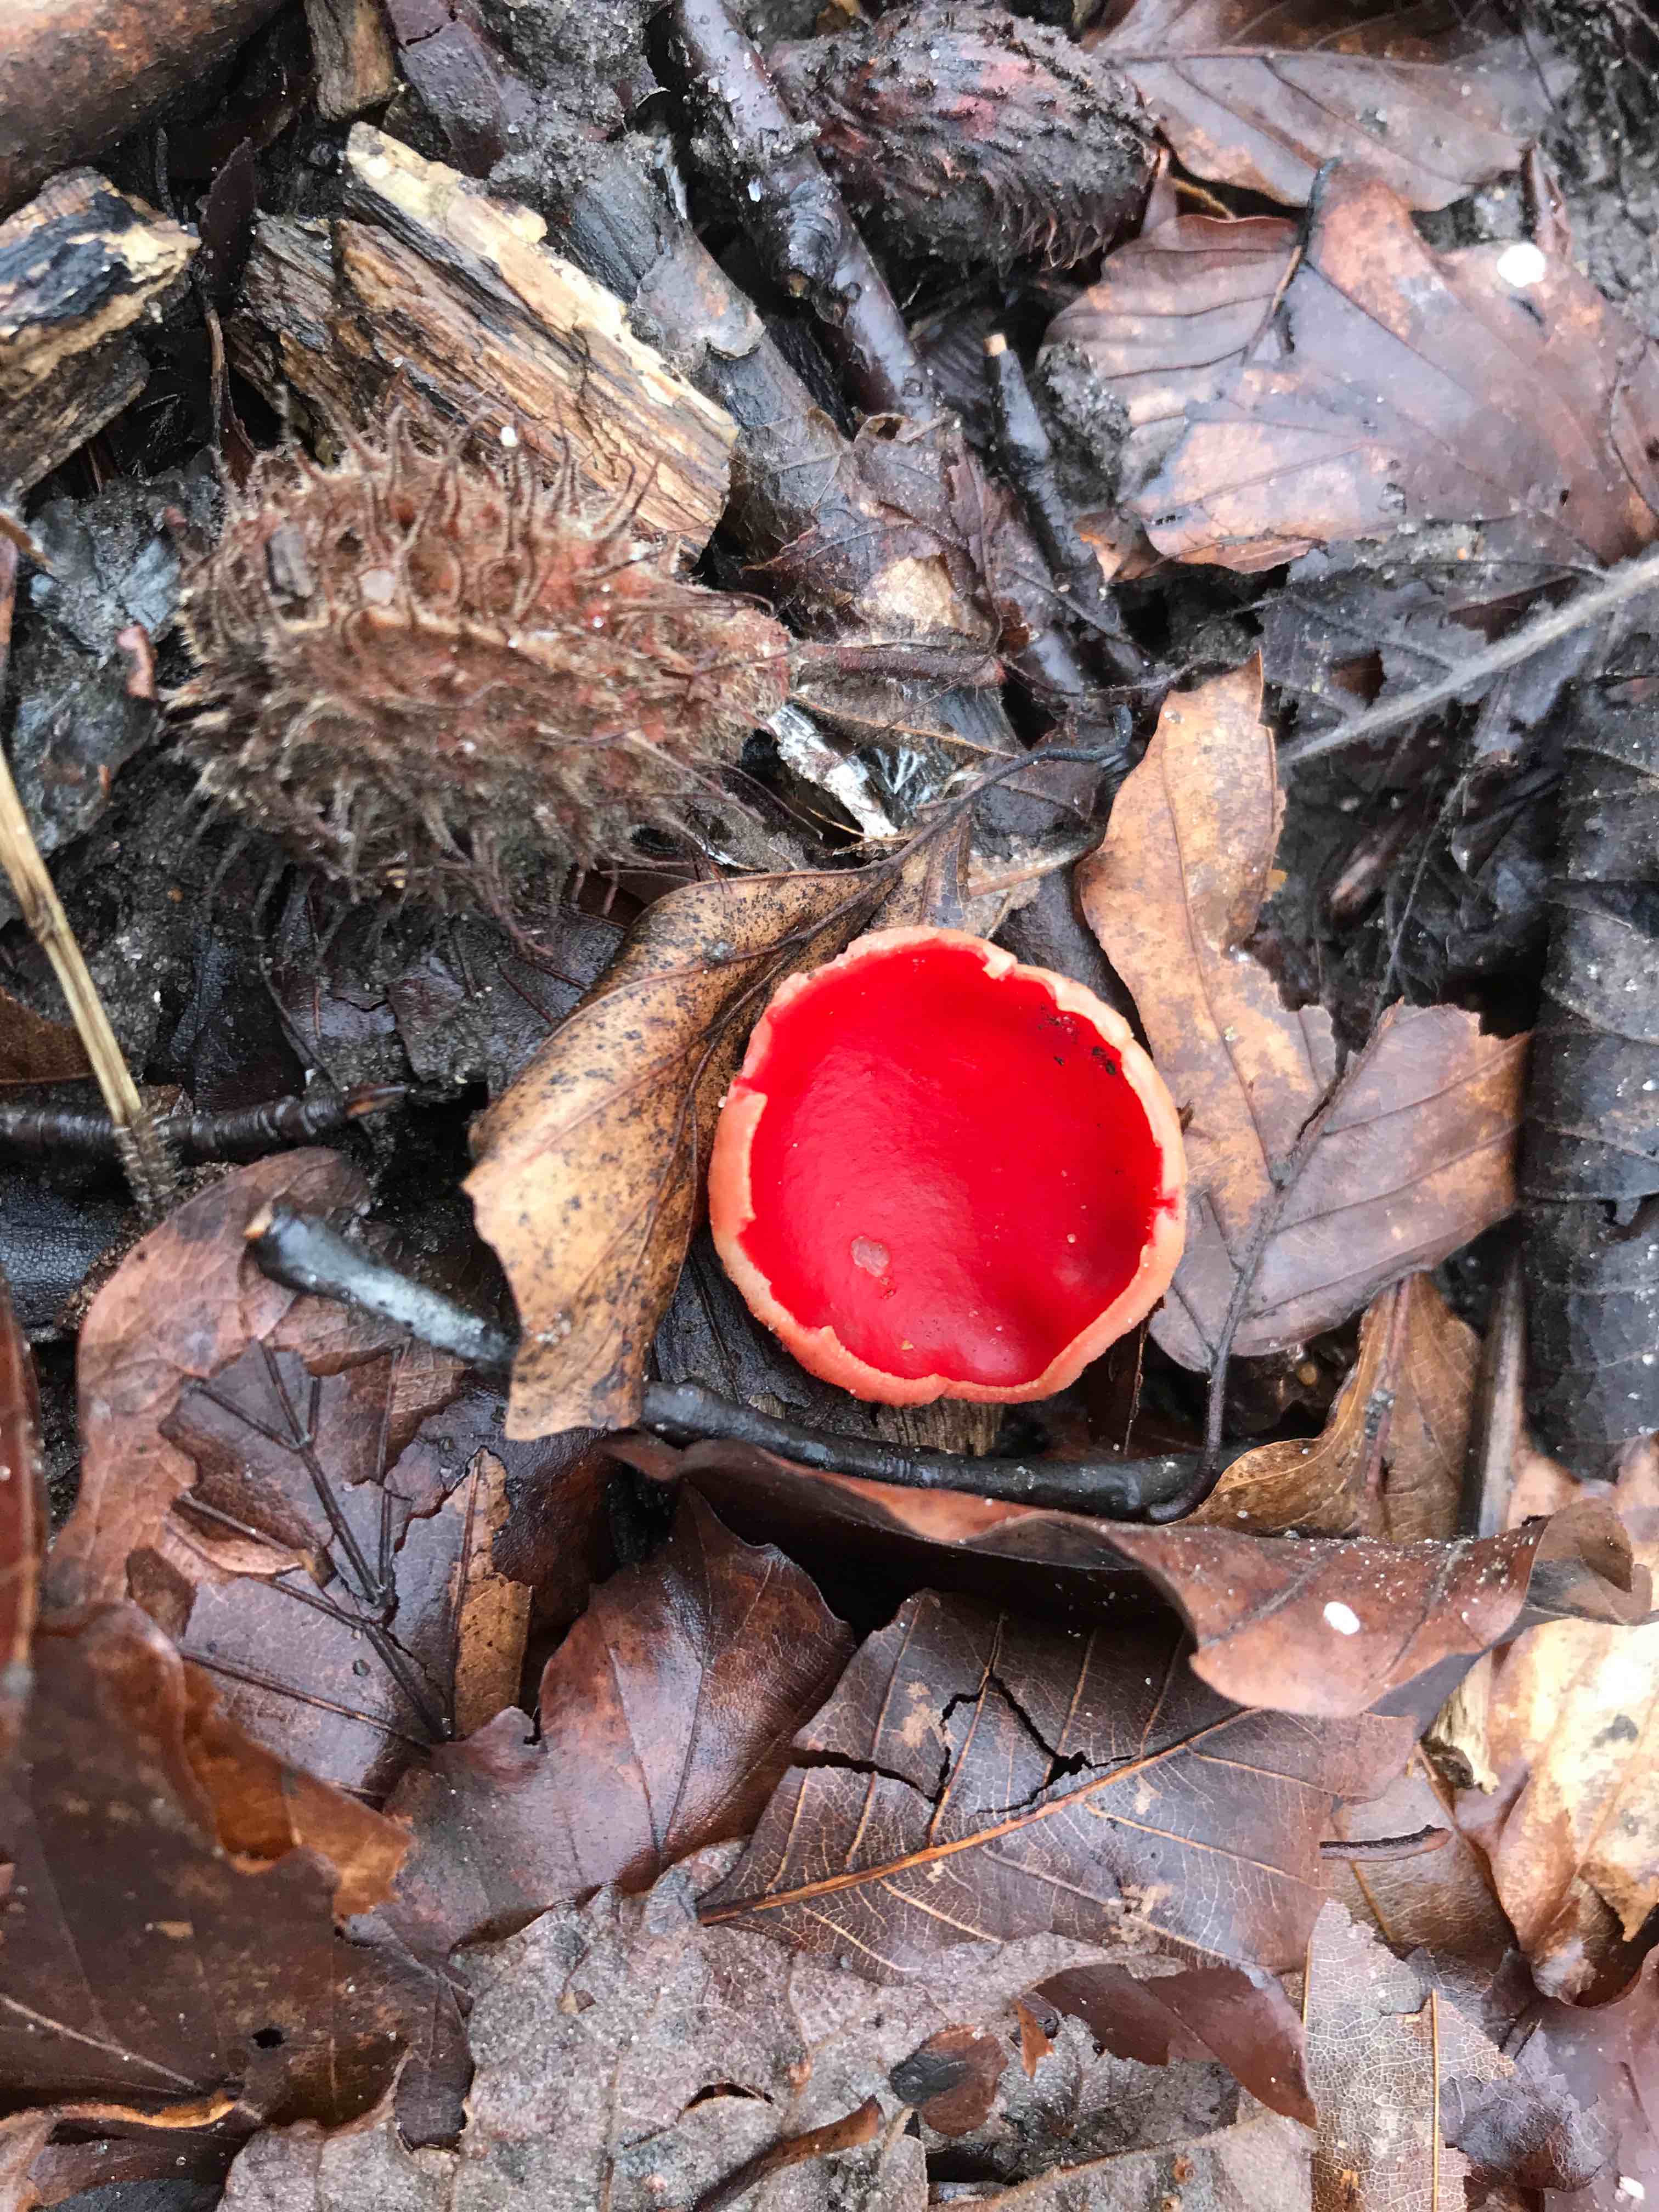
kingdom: Fungi
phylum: Ascomycota
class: Pezizomycetes
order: Pezizales
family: Sarcoscyphaceae
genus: Sarcoscypha
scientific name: Sarcoscypha austriaca
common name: krølhåret pragtbæger
